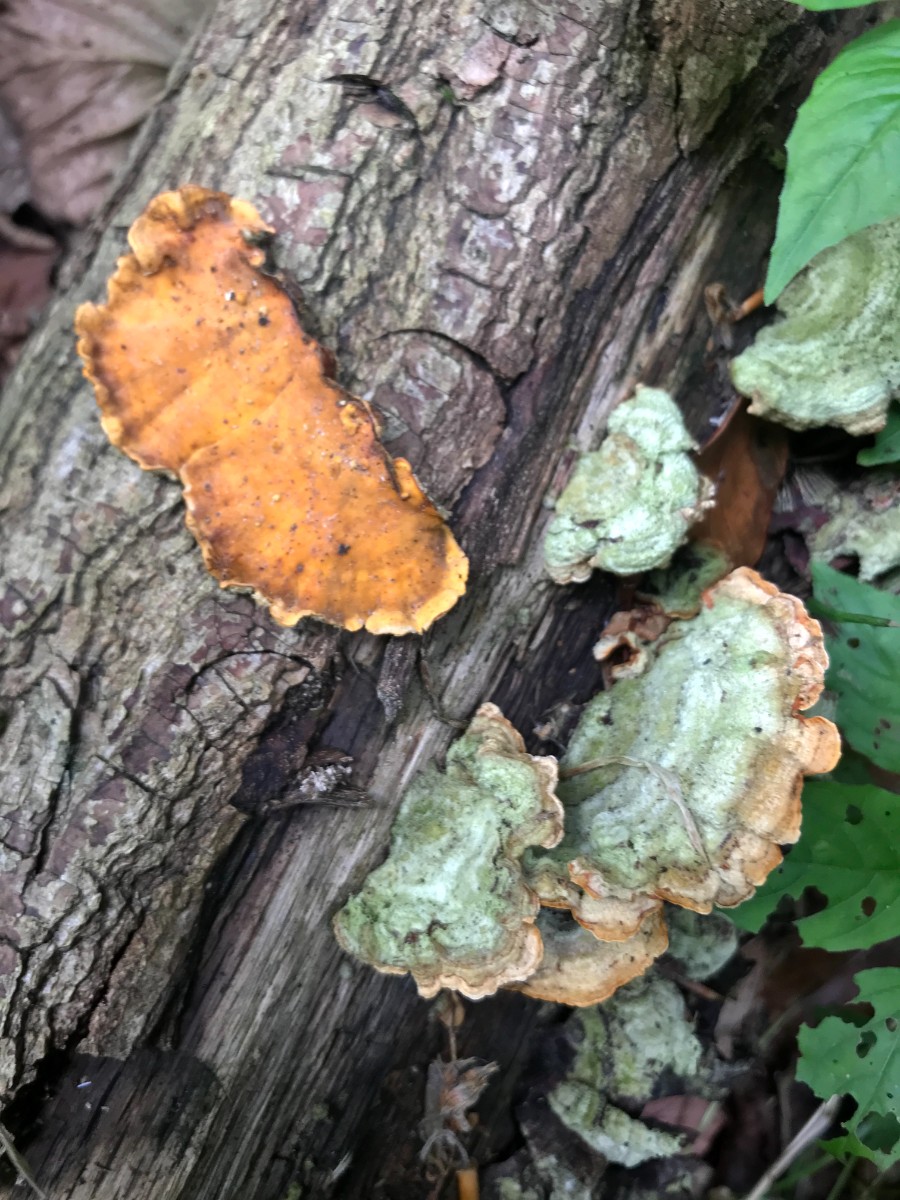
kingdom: Fungi
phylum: Basidiomycota
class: Agaricomycetes
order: Russulales
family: Stereaceae
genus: Stereum
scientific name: Stereum hirsutum
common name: håret lædersvamp
